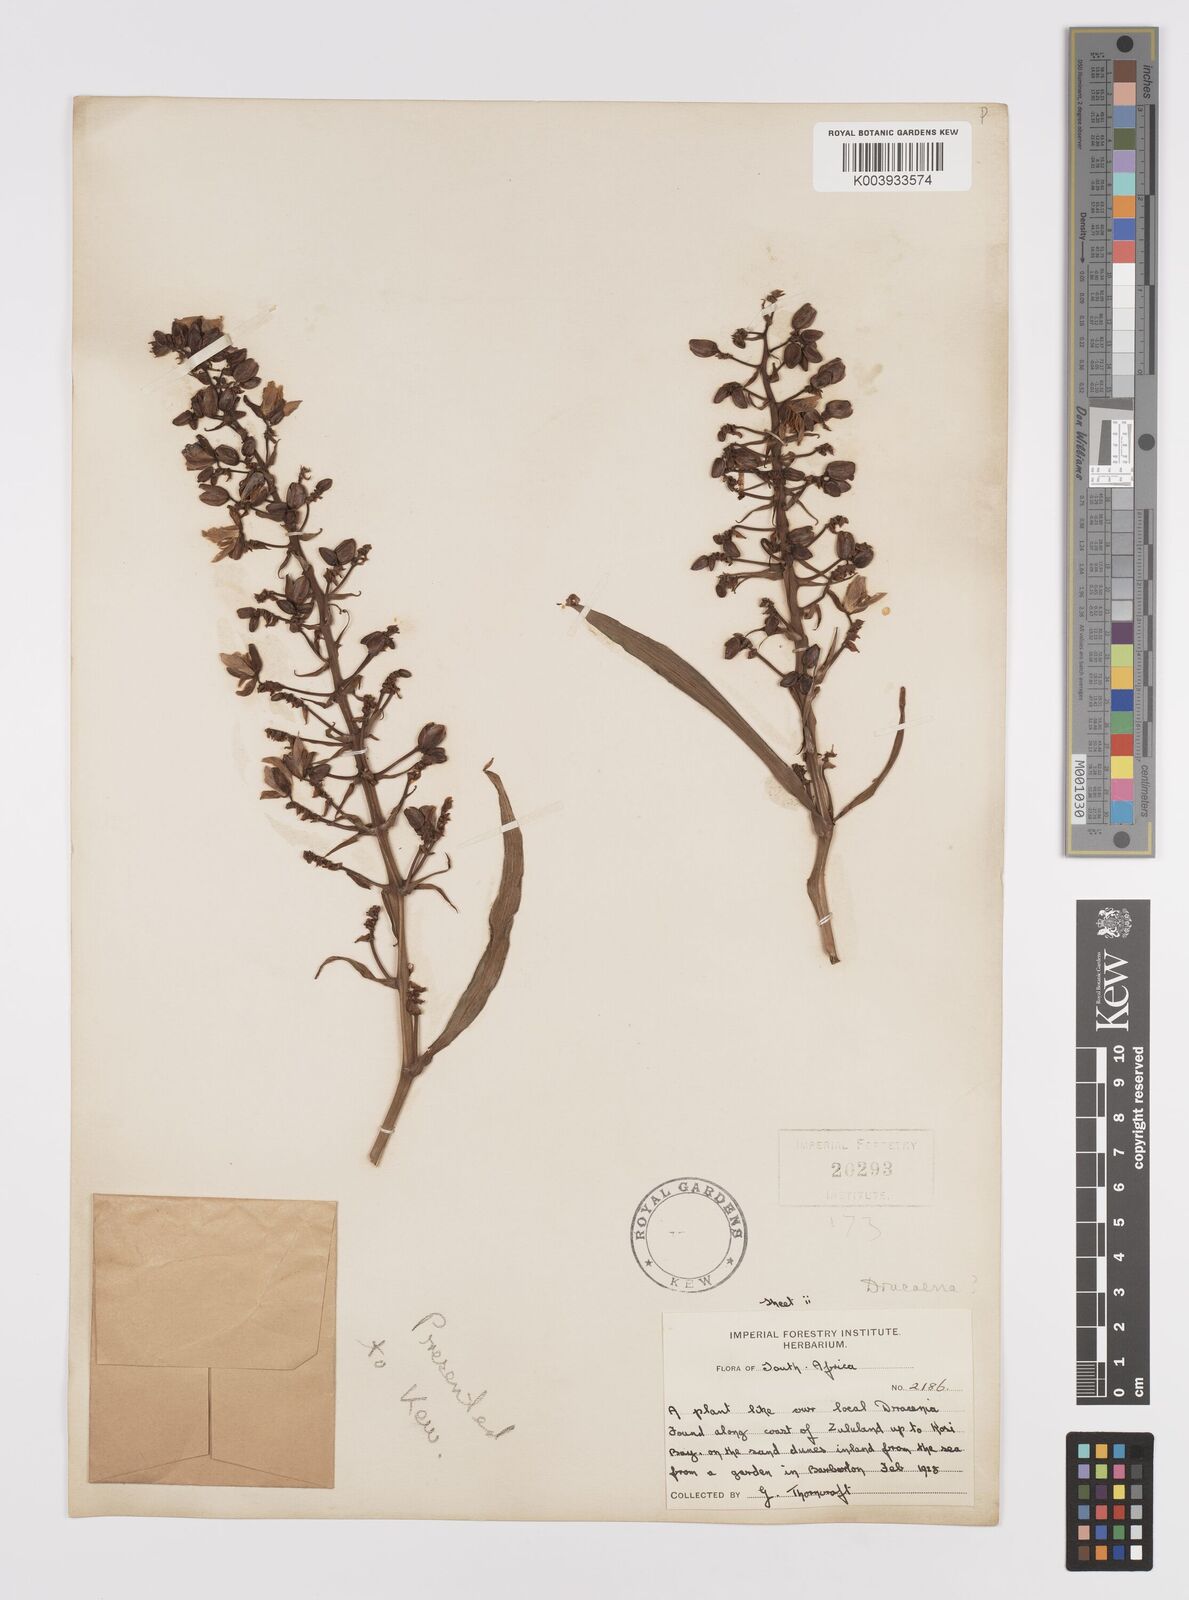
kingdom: Plantae
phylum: Tracheophyta
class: Liliopsida
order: Commelinales
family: Commelinaceae
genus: Dichorisandra
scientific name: Dichorisandra thyrsiflora
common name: Blue-ginger
